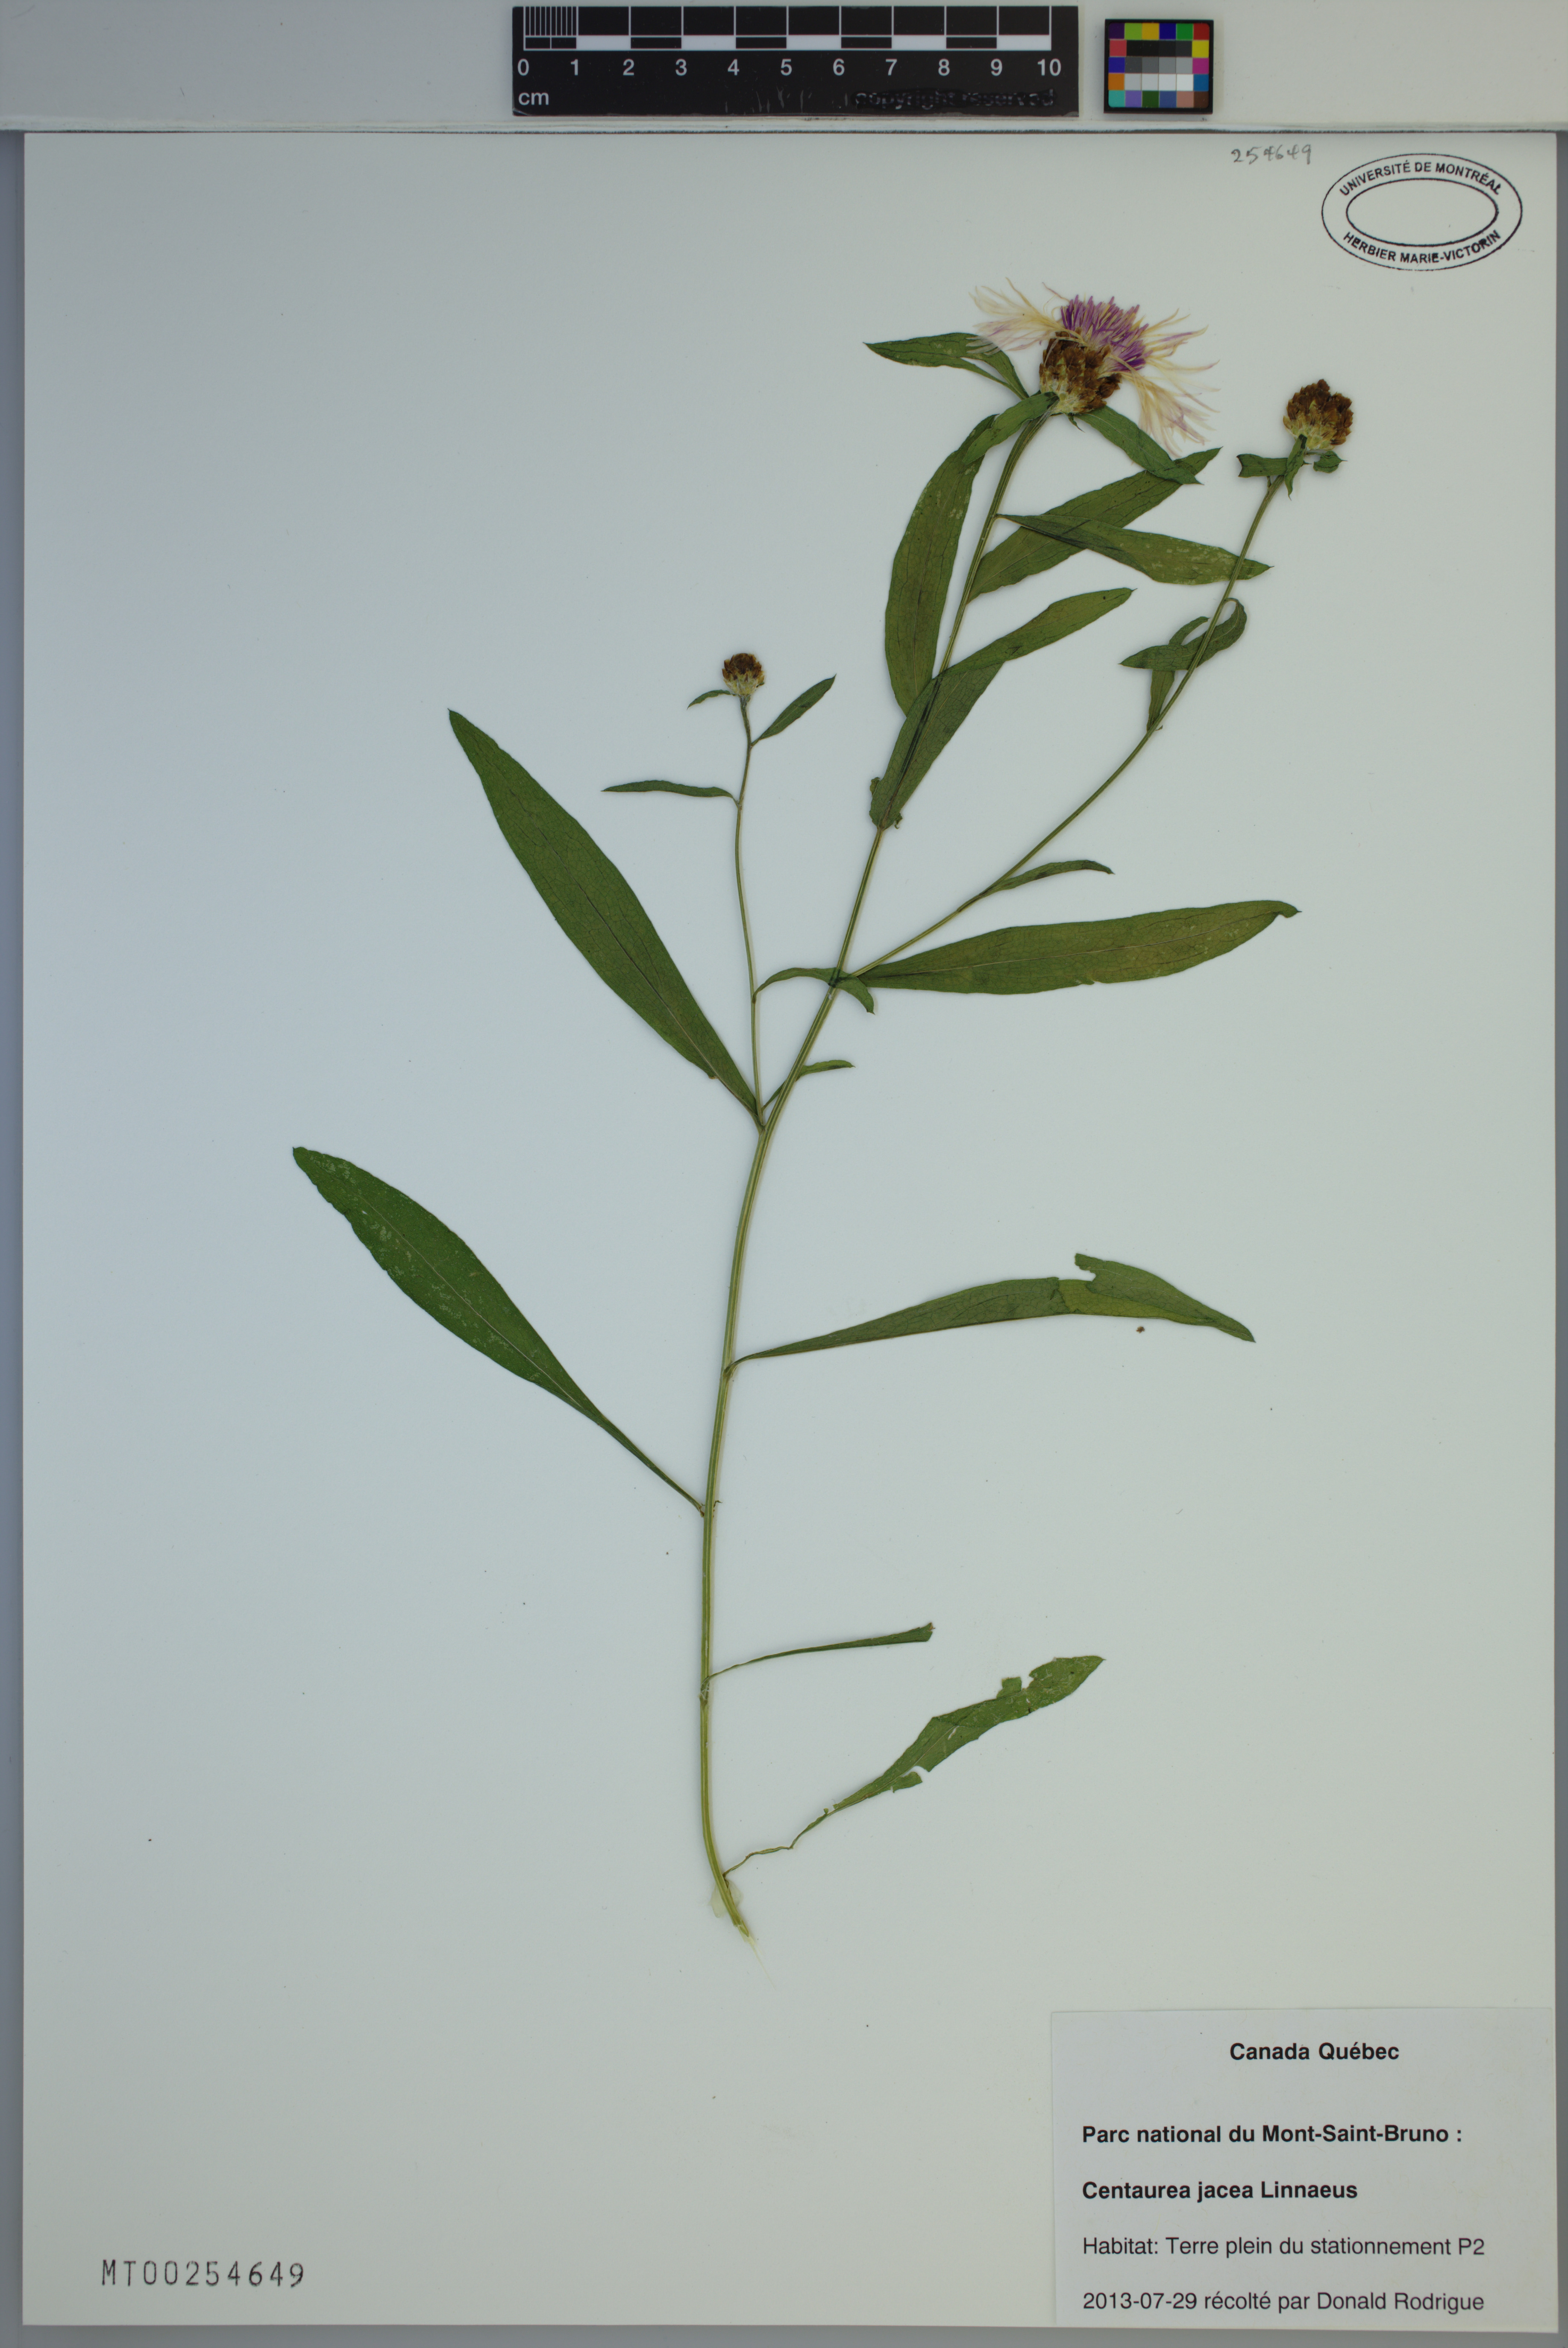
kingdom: Plantae
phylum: Tracheophyta
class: Magnoliopsida
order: Asterales
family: Asteraceae
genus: Centaurea
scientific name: Centaurea jacea
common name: Brown knapweed
